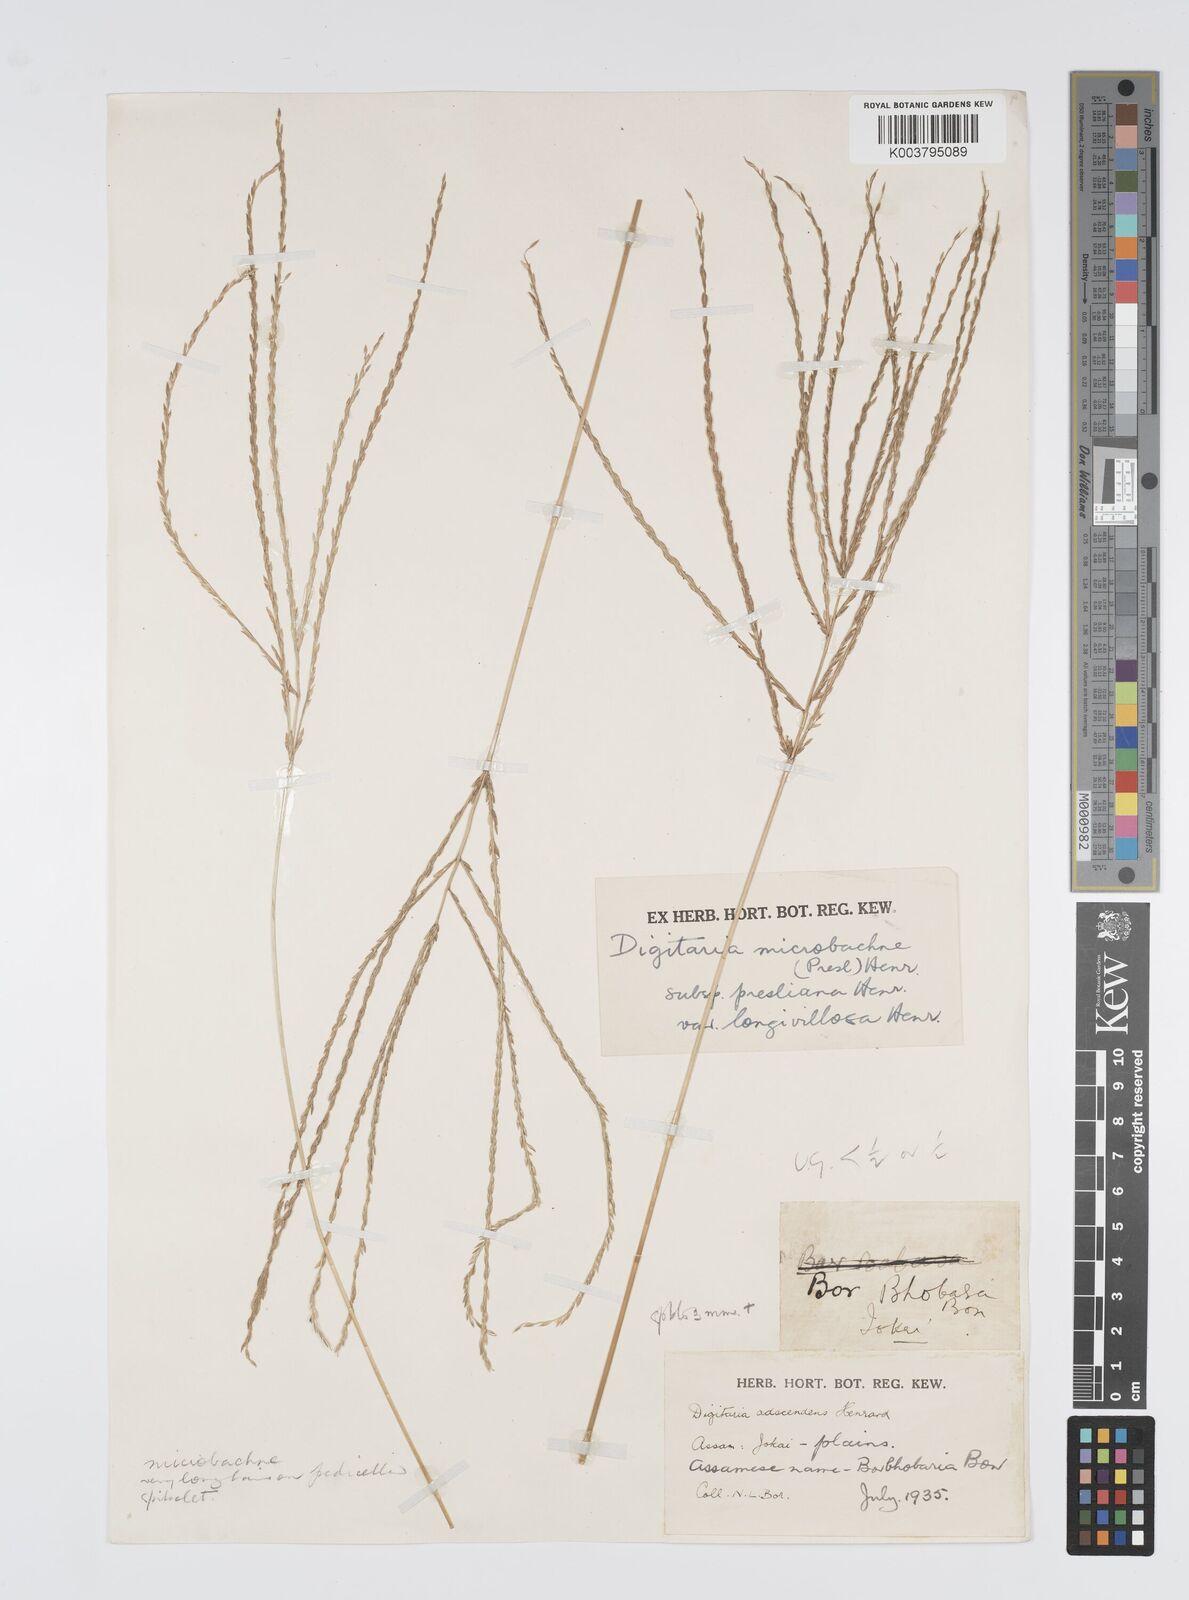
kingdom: Plantae
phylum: Tracheophyta
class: Liliopsida
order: Poales
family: Poaceae
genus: Digitaria
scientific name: Digitaria setigera
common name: East indian crabgrass
